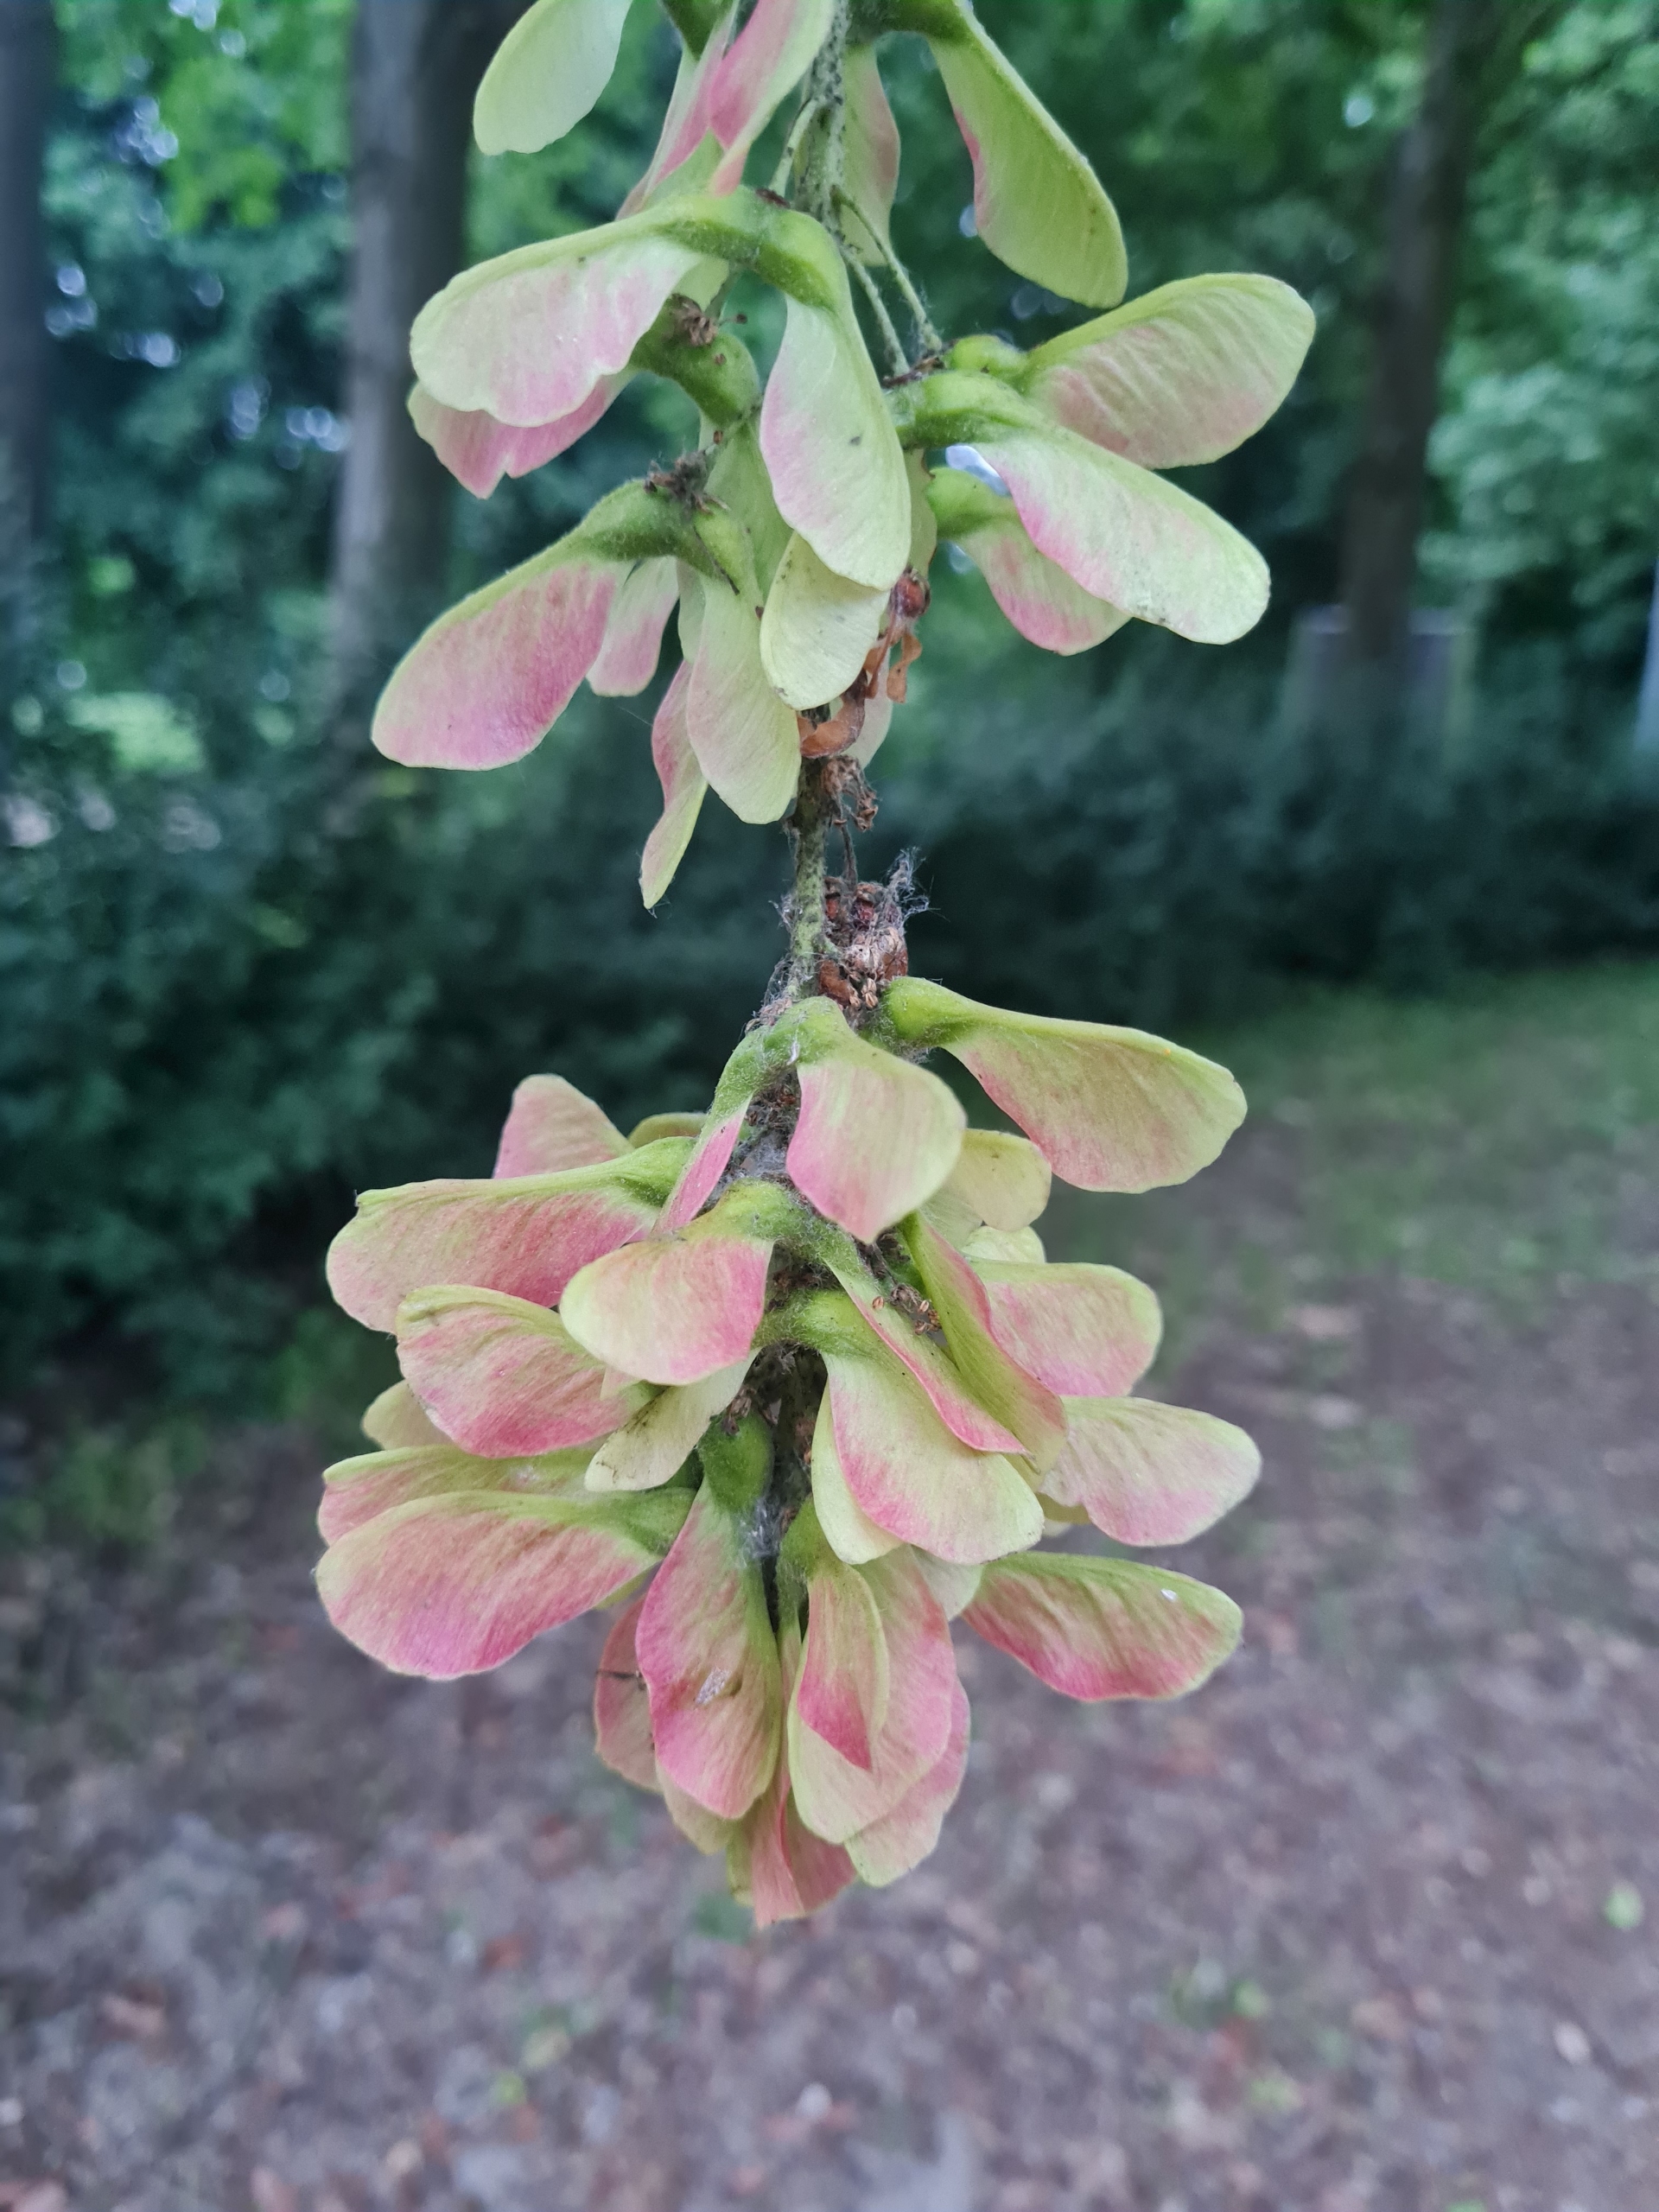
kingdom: Plantae
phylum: Tracheophyta
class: Magnoliopsida
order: Sapindales
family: Sapindaceae
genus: Acer
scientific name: Acer pseudoplatanus
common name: Ahorn
